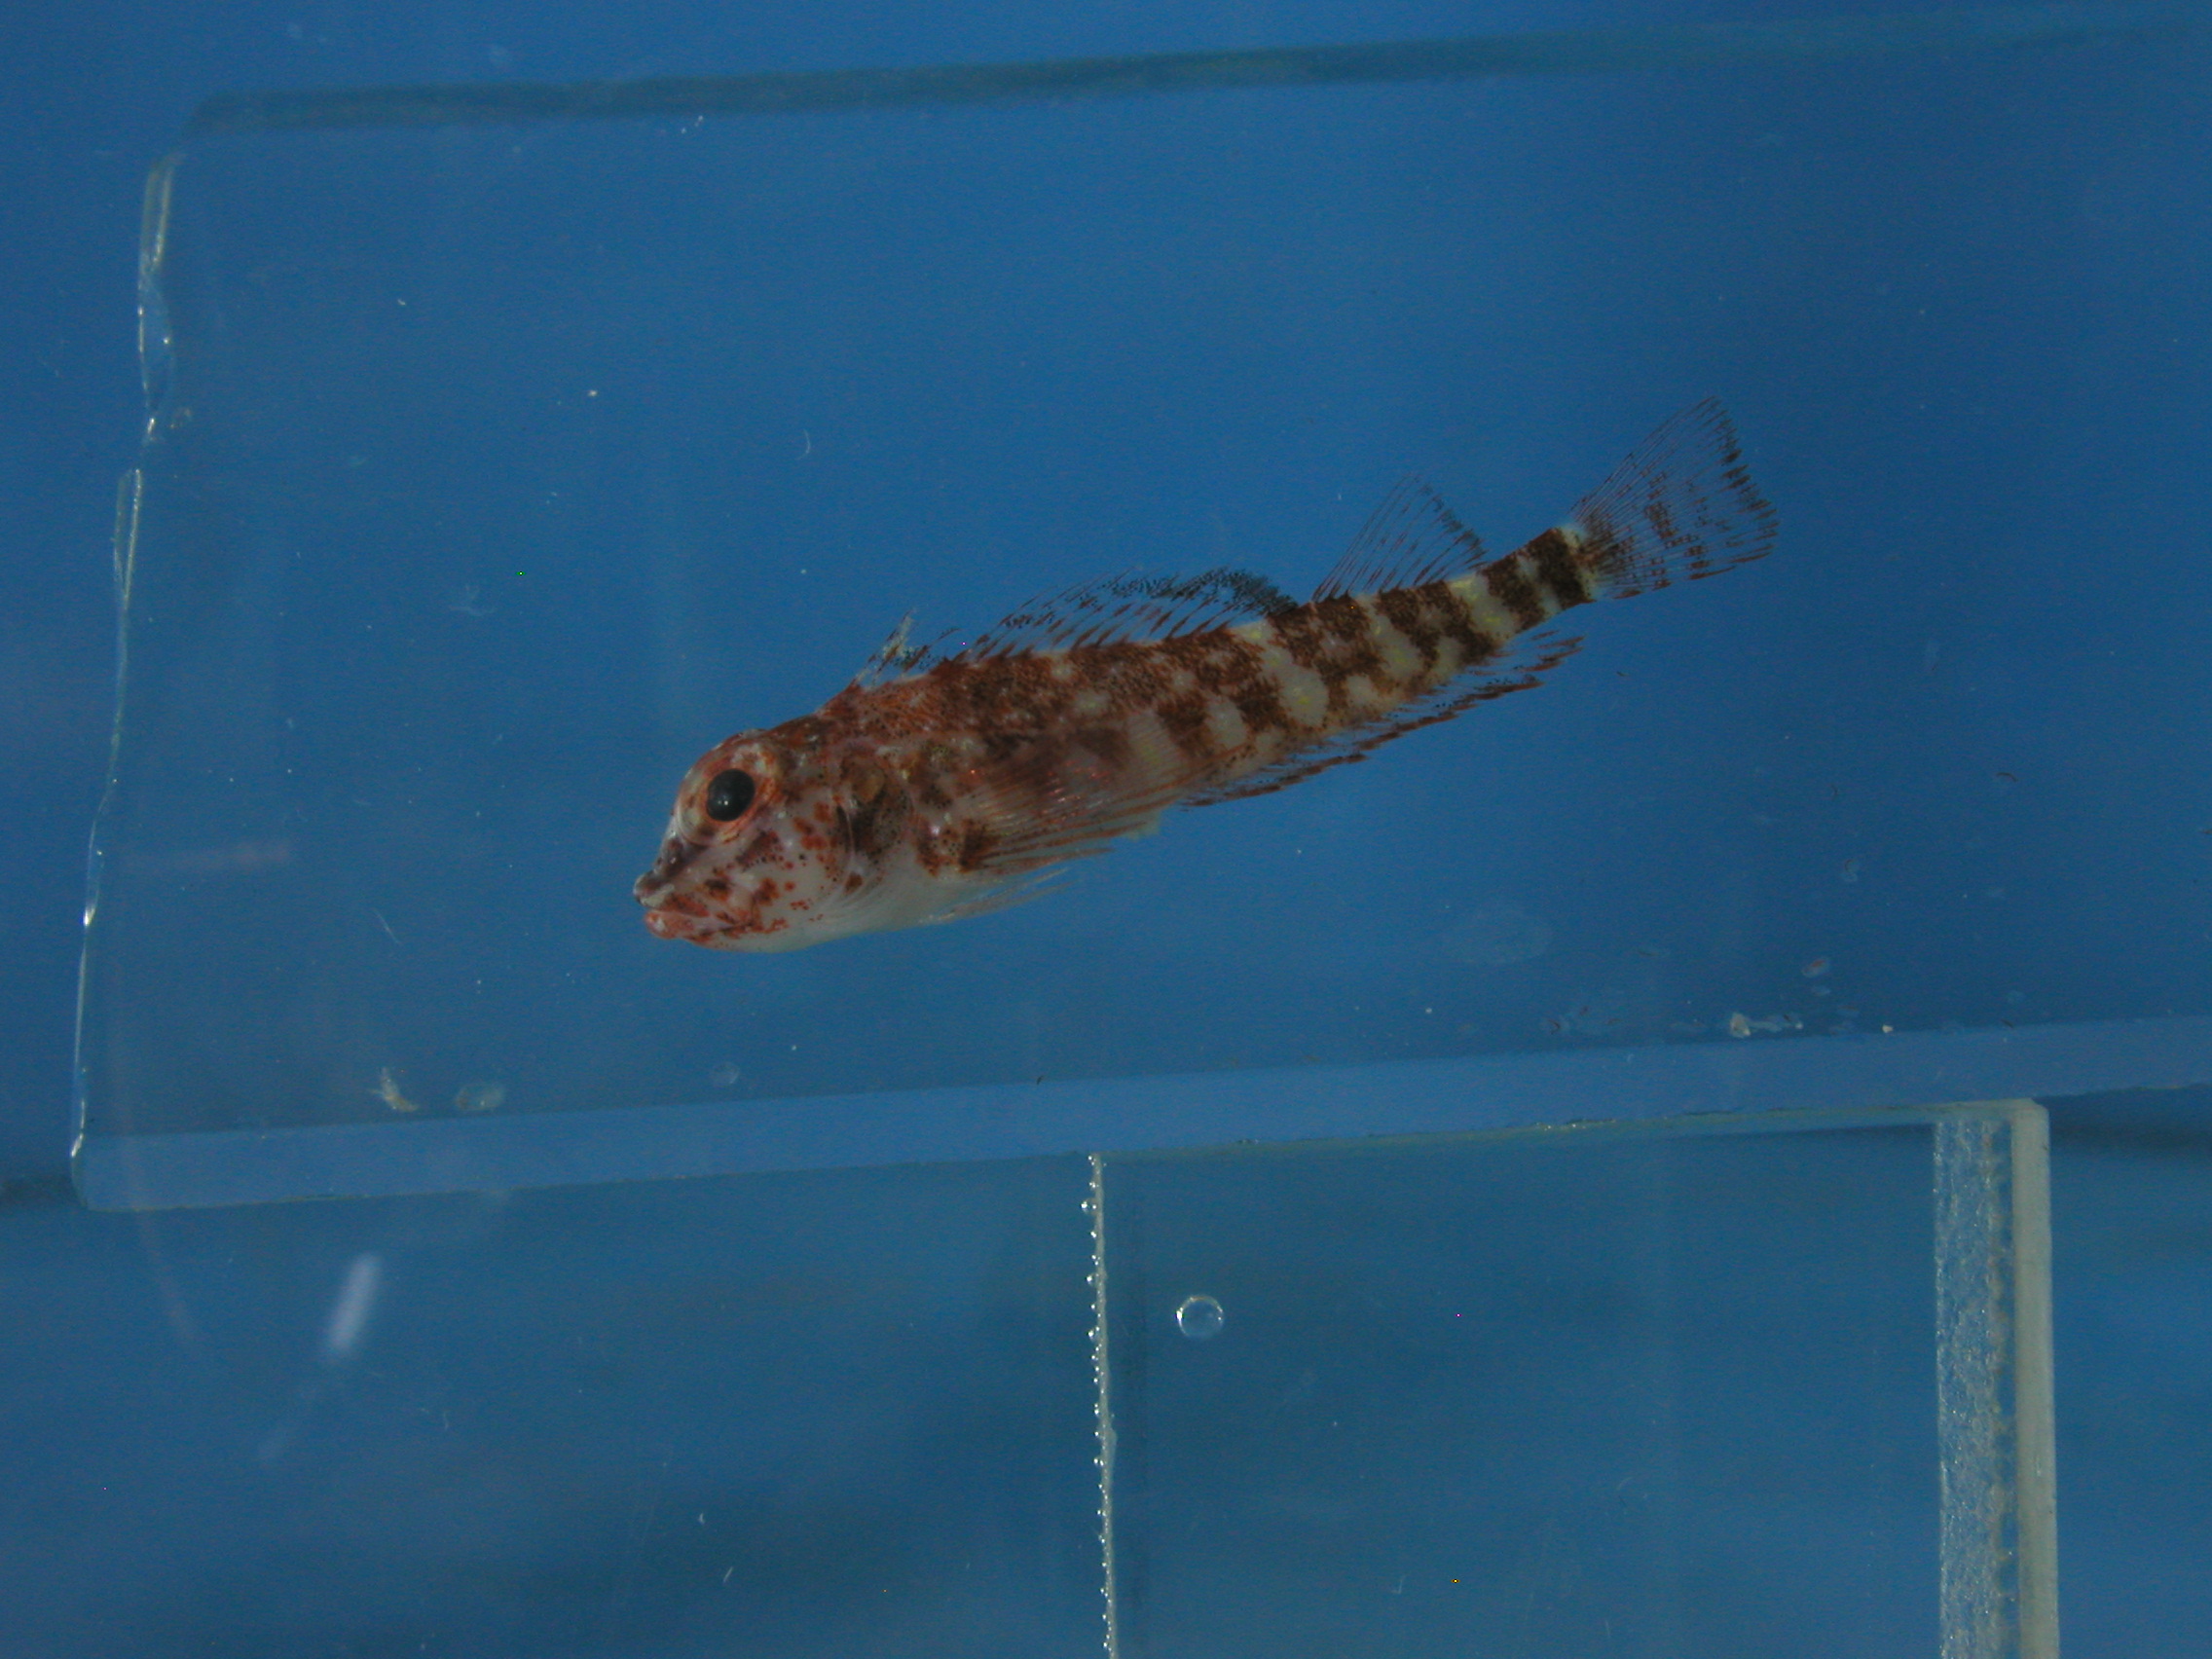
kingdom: Animalia
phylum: Chordata
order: Perciformes
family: Tripterygiidae
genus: Helcogramma
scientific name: Helcogramma fuscopinna
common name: Blackfin triplefin
